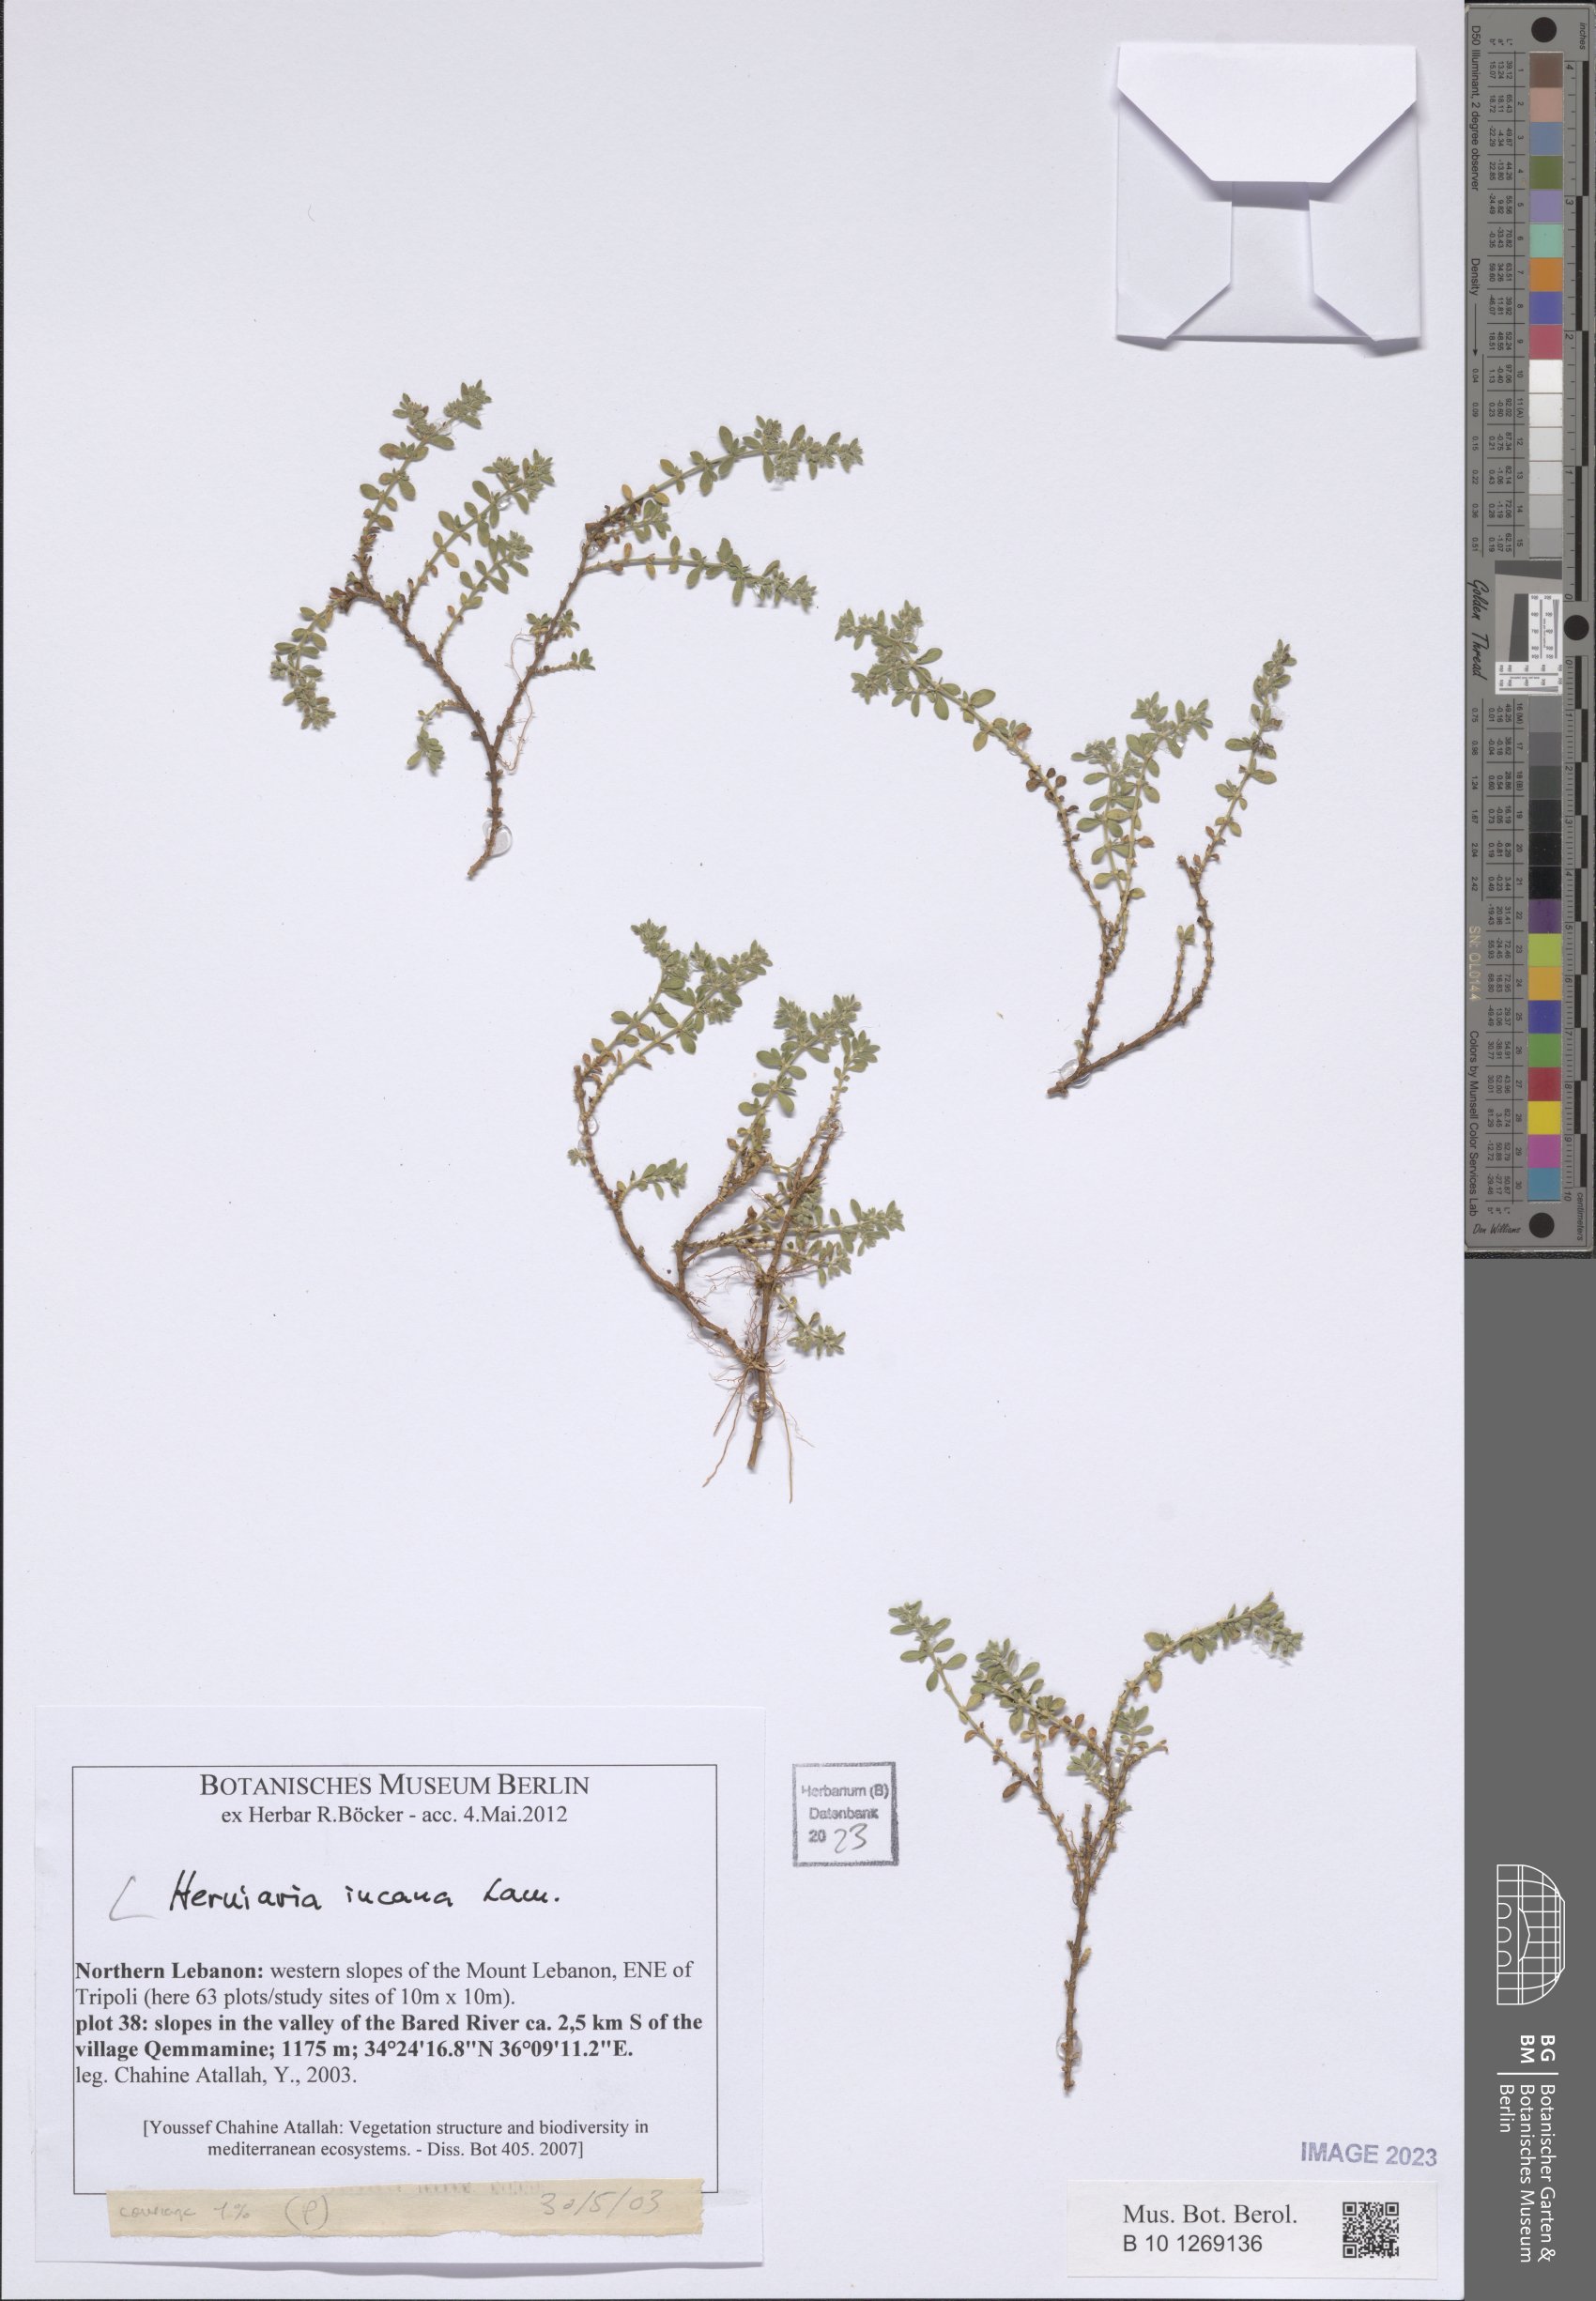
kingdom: Plantae
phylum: Tracheophyta
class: Magnoliopsida
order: Caryophyllales
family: Caryophyllaceae
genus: Herniaria
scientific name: Herniaria incana
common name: Gray rupturewort
